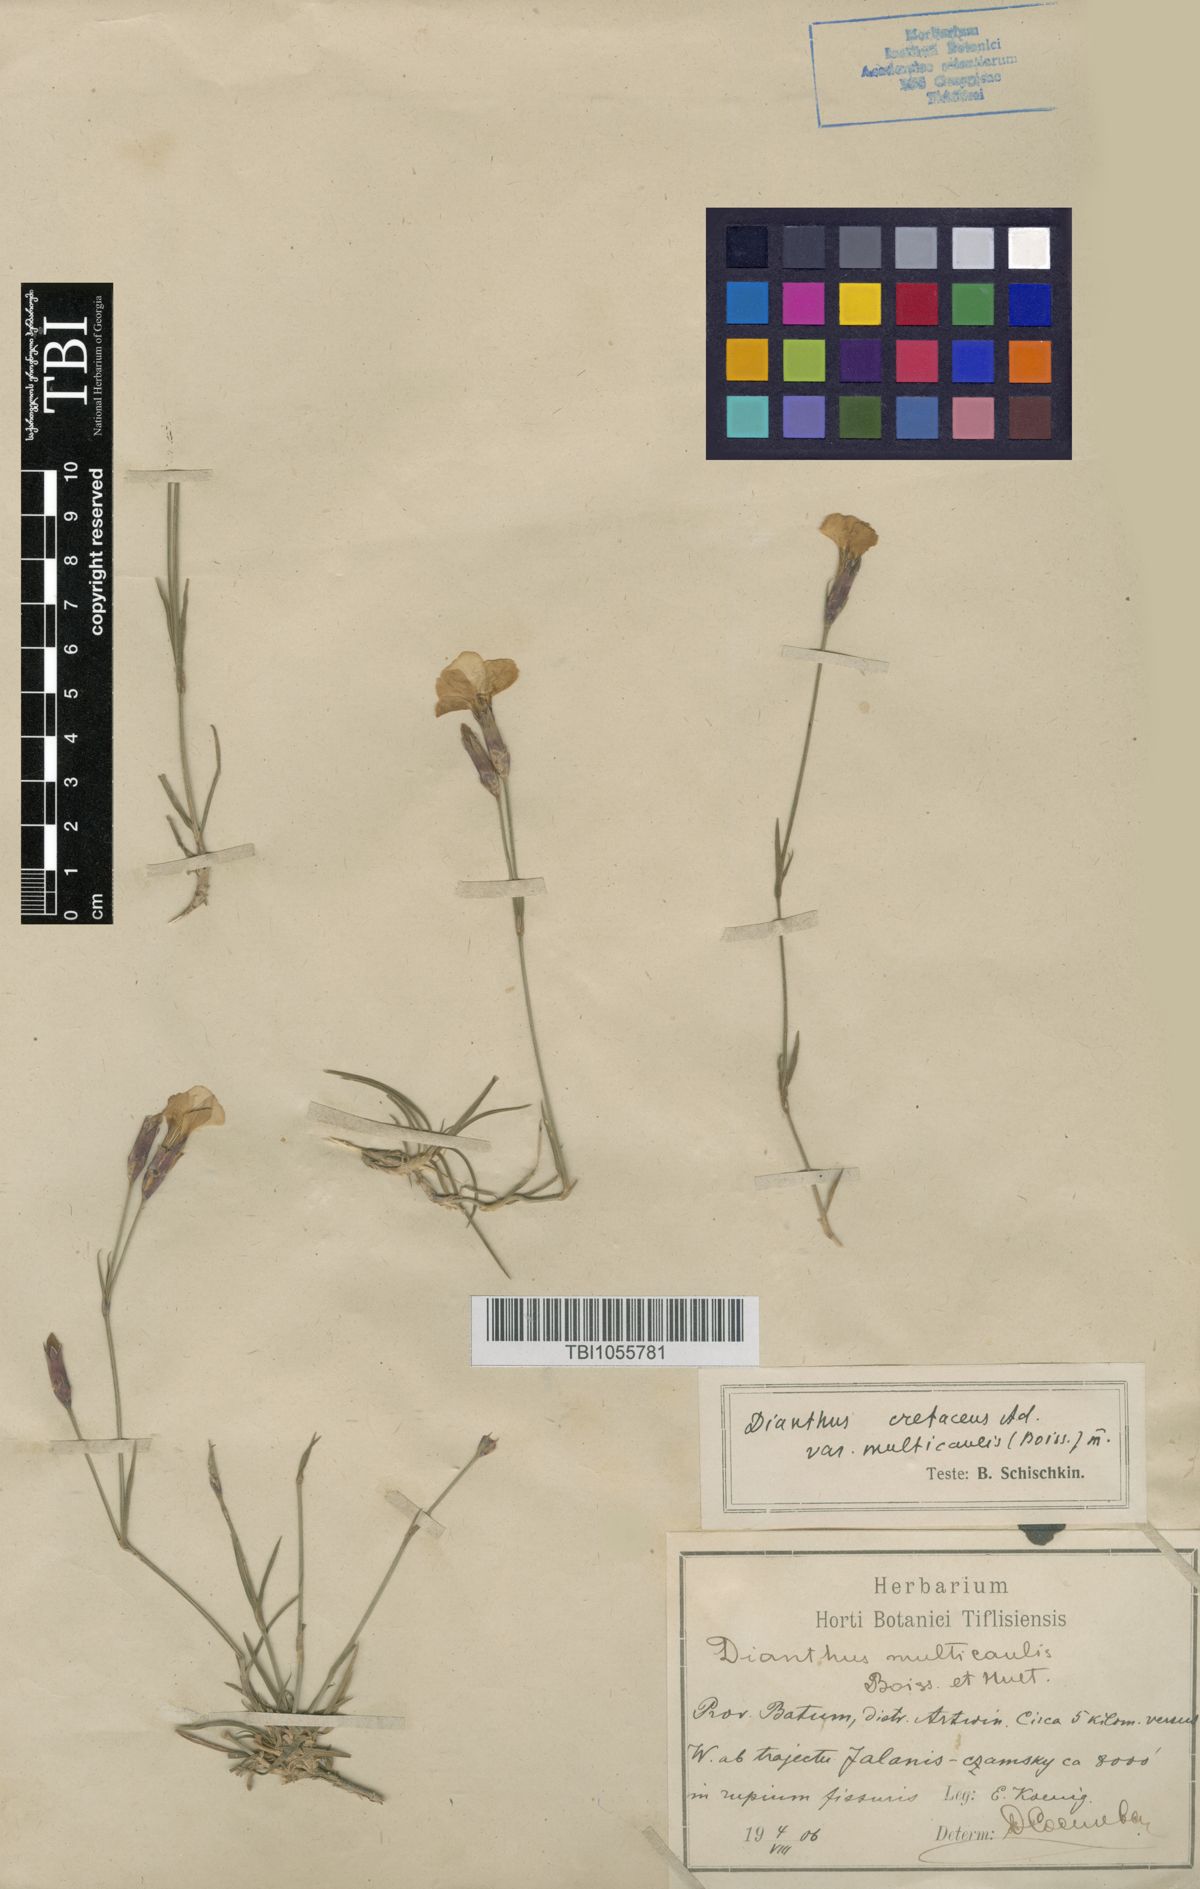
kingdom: Plantae
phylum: Tracheophyta
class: Magnoliopsida
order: Caryophyllales
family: Caryophyllaceae
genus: Dianthus
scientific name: Dianthus cretaceus
